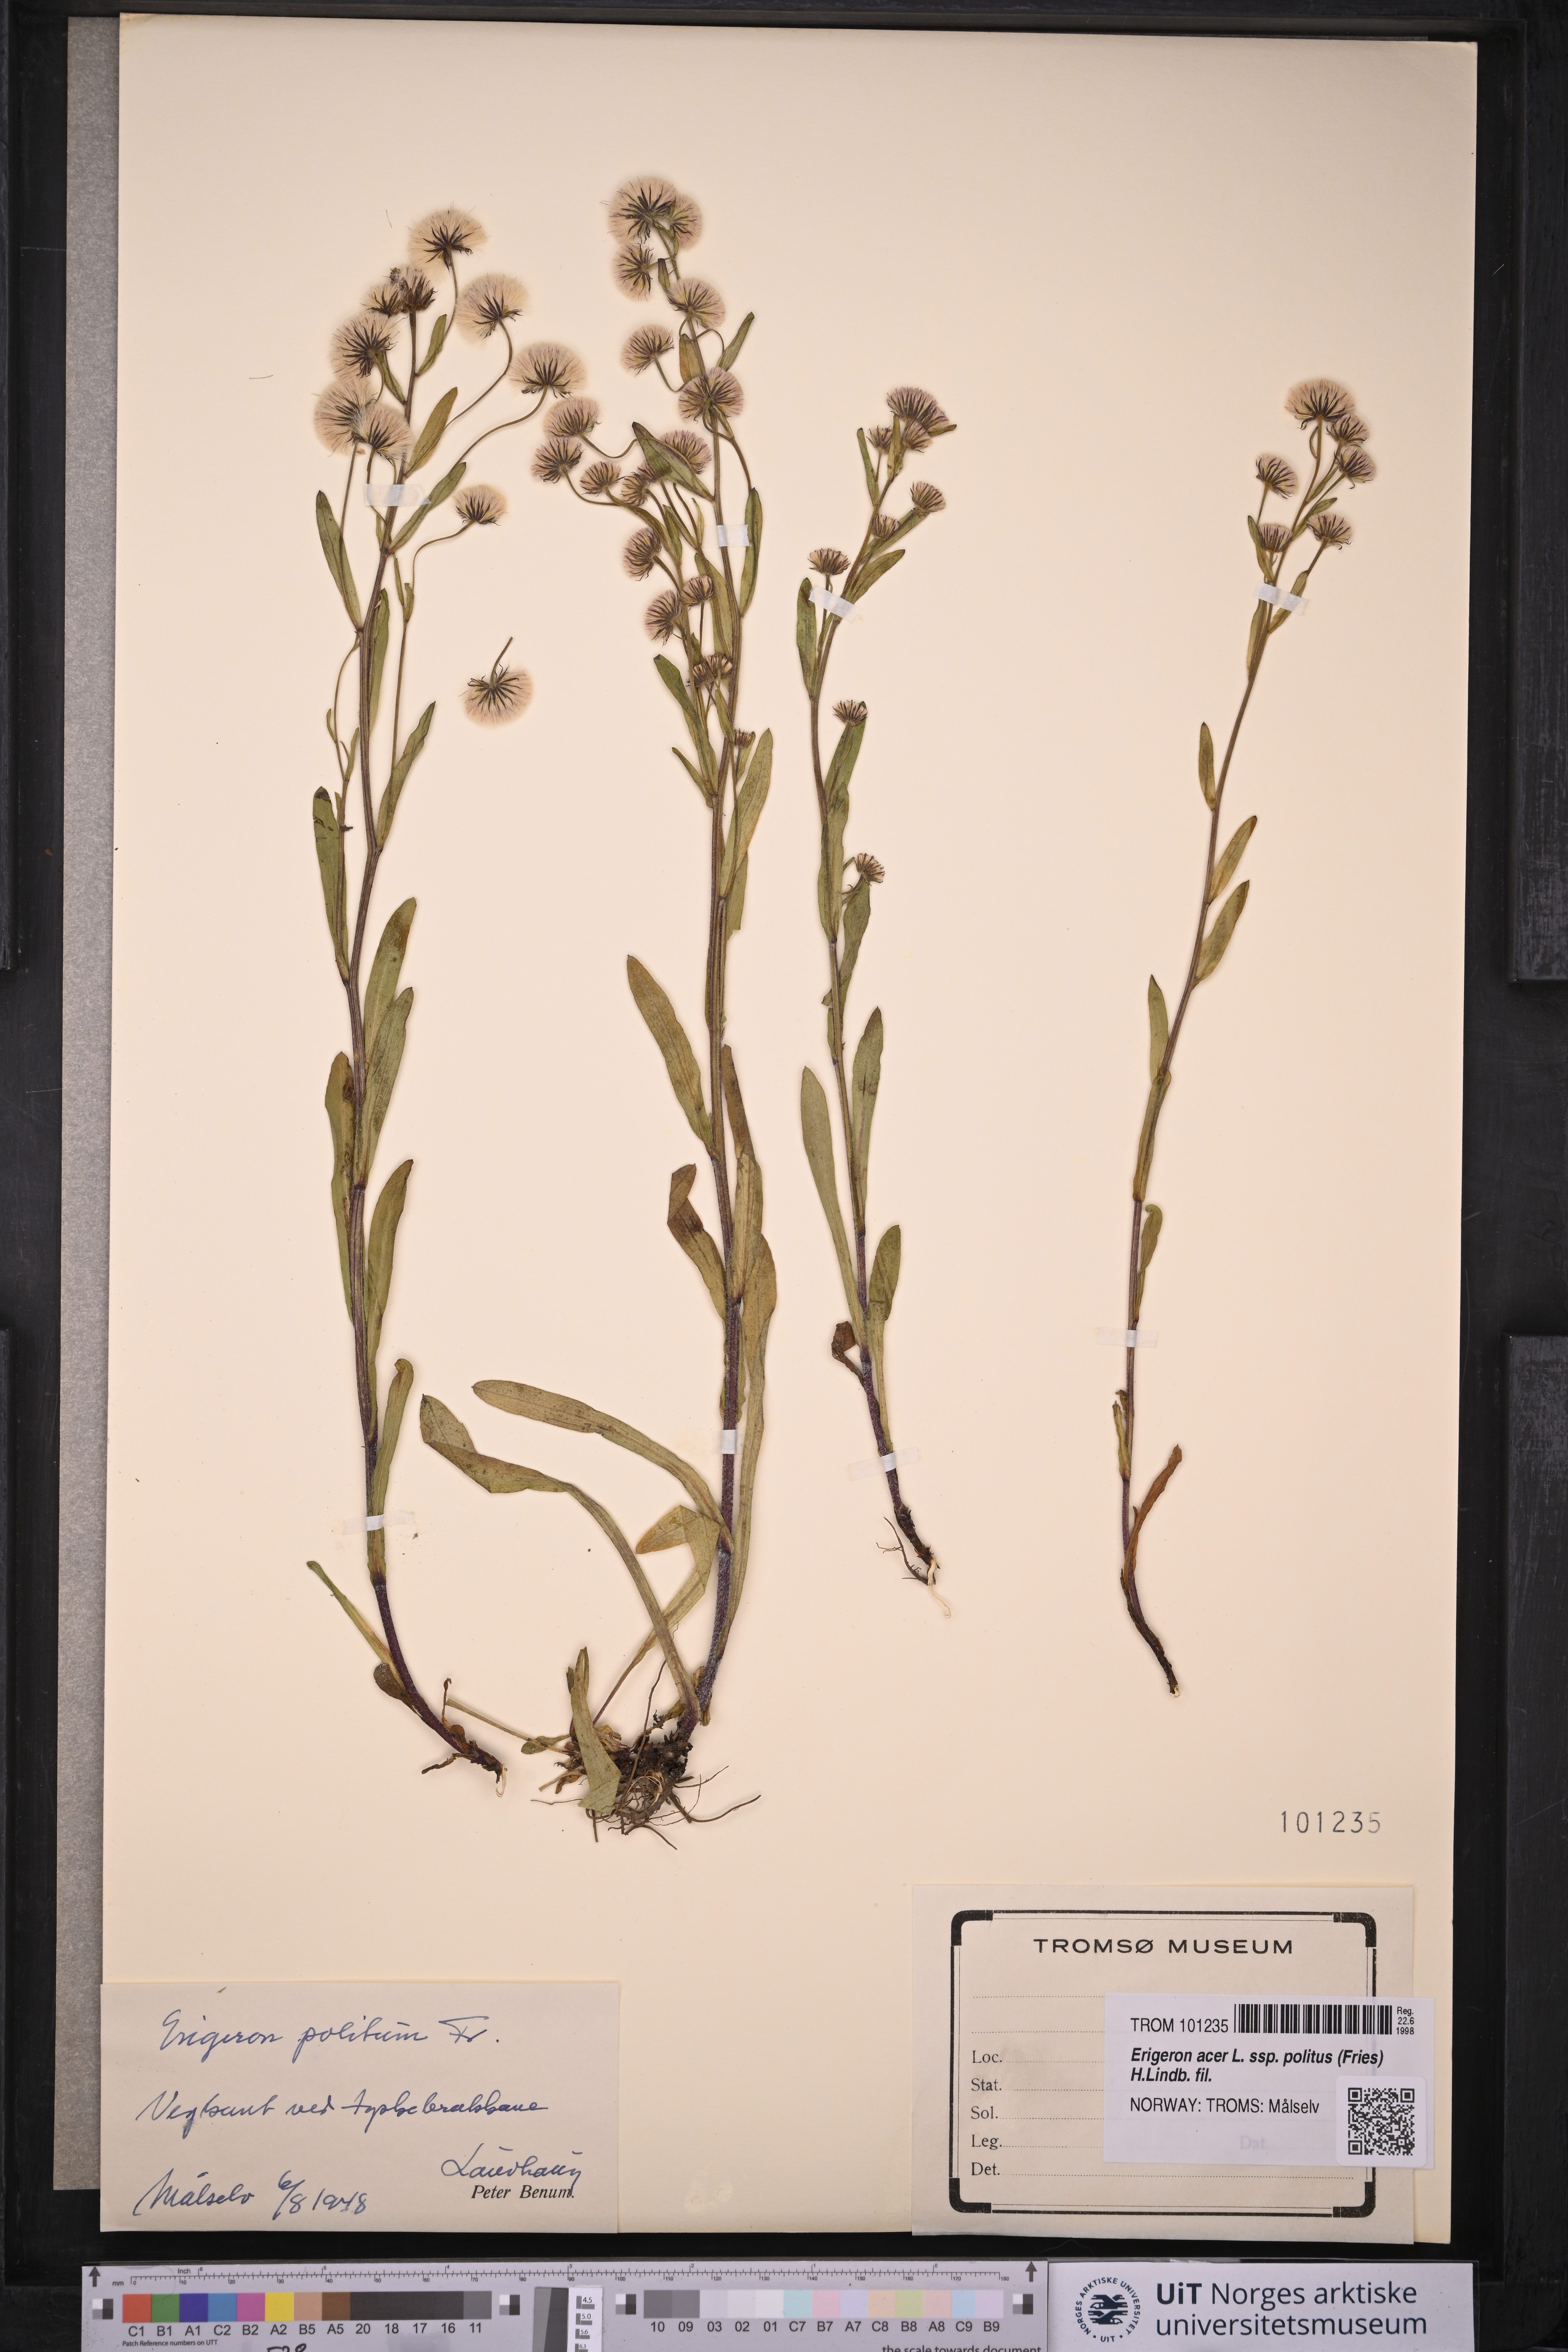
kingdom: Plantae
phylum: Tracheophyta
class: Magnoliopsida
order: Asterales
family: Asteraceae
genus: Erigeron
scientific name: Erigeron politus
